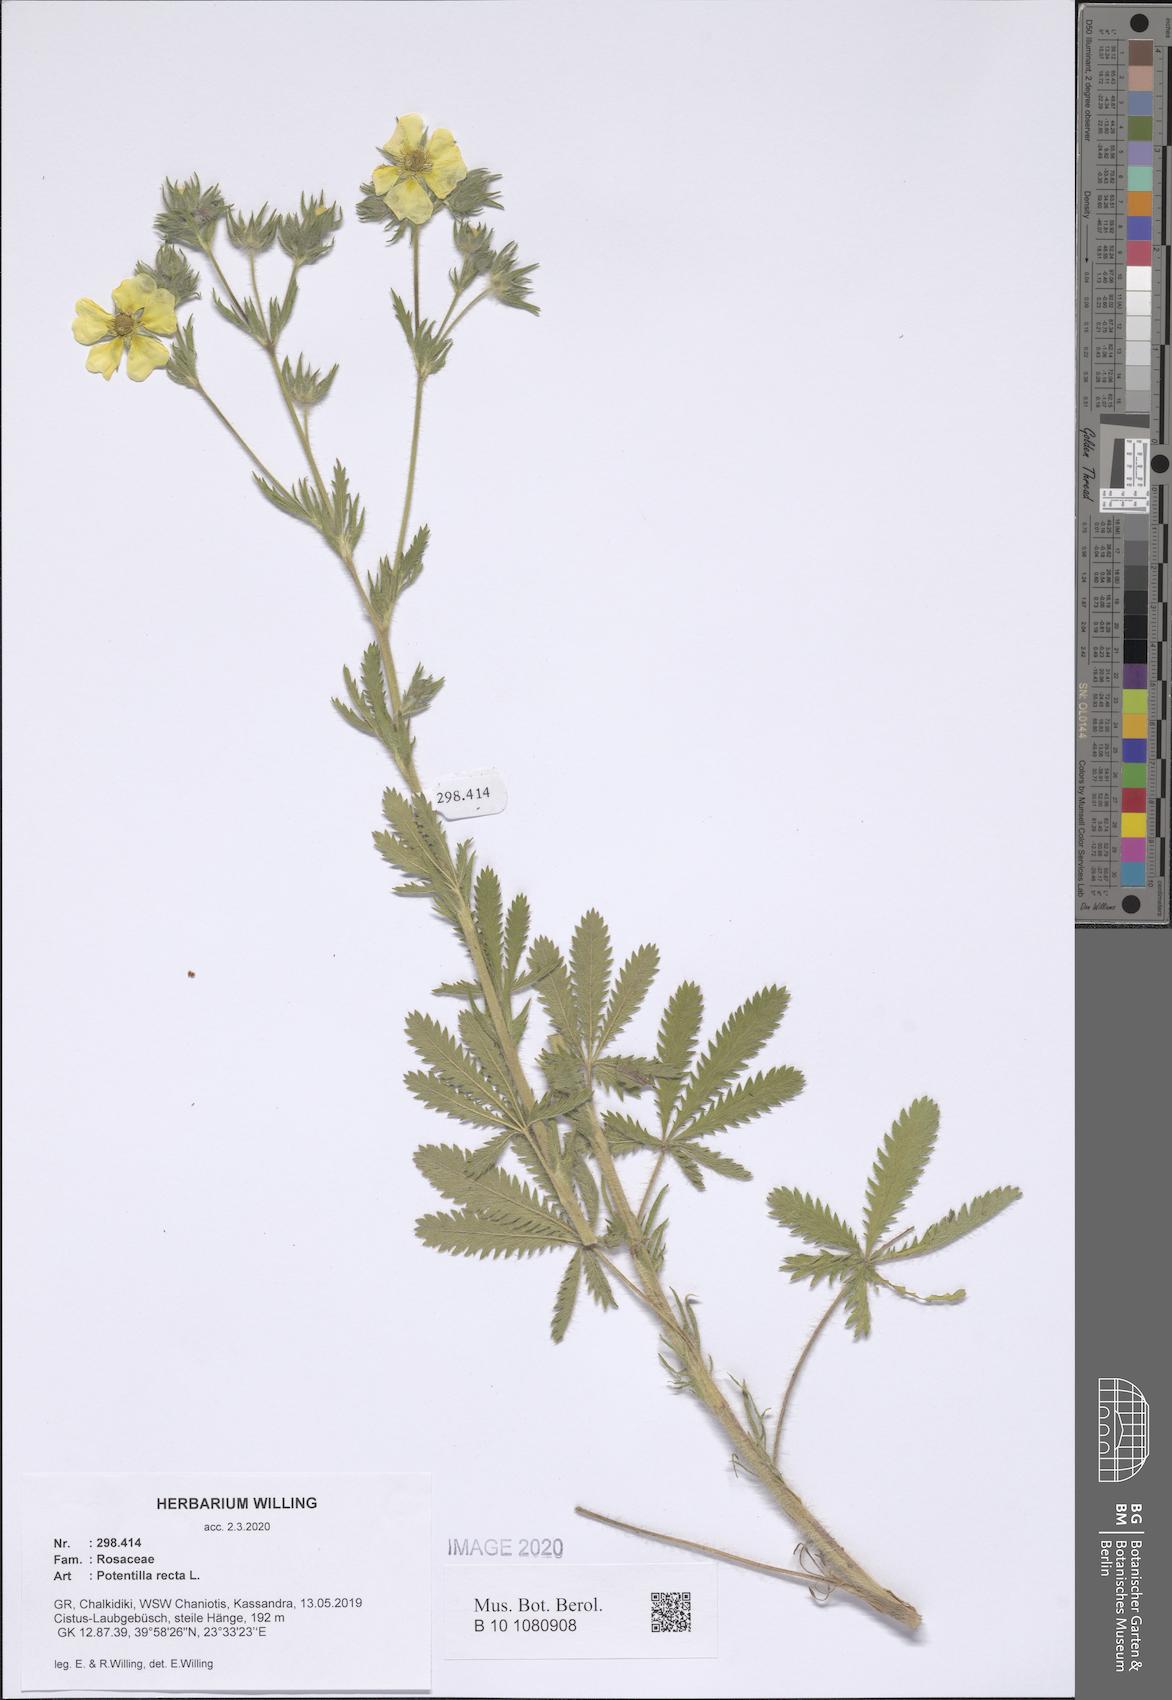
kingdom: Plantae
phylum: Tracheophyta
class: Magnoliopsida
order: Rosales
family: Rosaceae
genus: Potentilla
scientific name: Potentilla recta
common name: Sulphur cinquefoil
